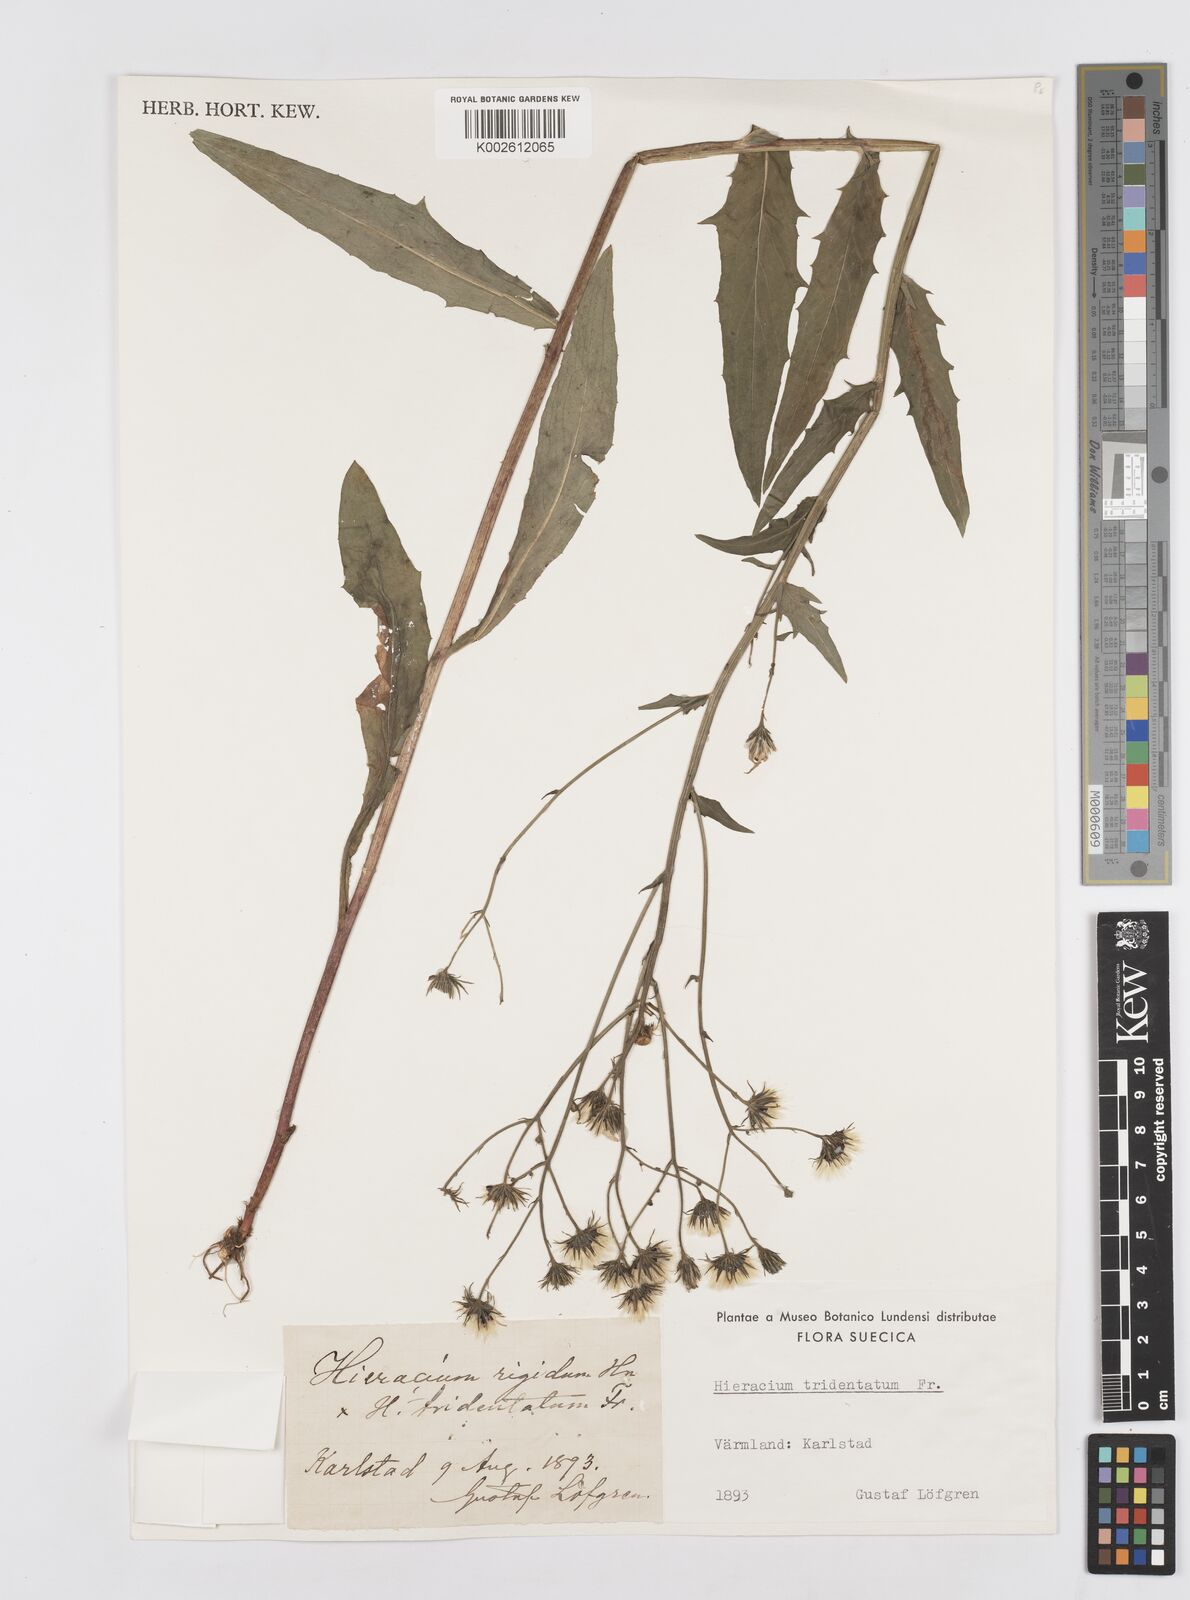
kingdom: Plantae
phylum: Tracheophyta
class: Magnoliopsida
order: Asterales
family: Asteraceae
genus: Hieracium
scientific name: Hieracium tridentatum
